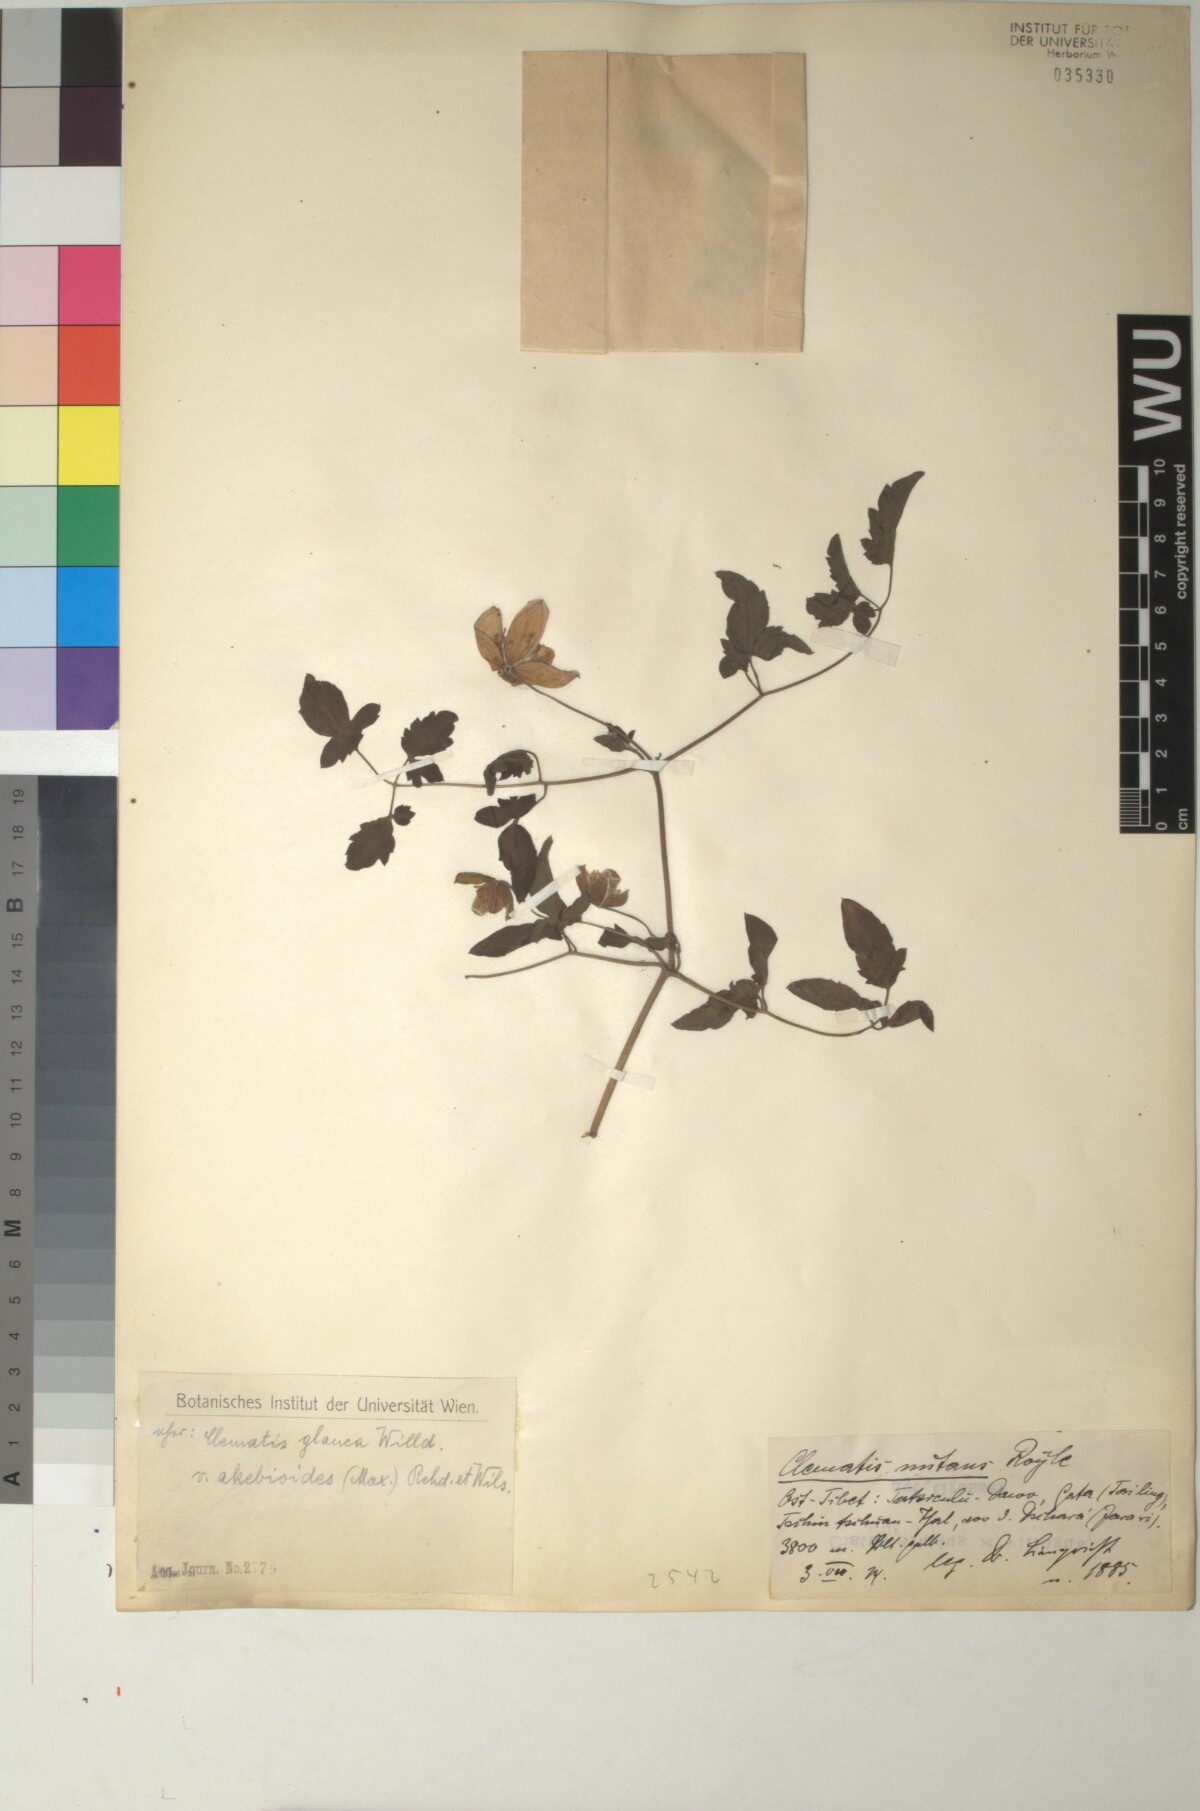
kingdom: Plantae
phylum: Tracheophyta
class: Magnoliopsida
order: Ranunculales
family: Ranunculaceae
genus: Clematis
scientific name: Clematis akebioides
